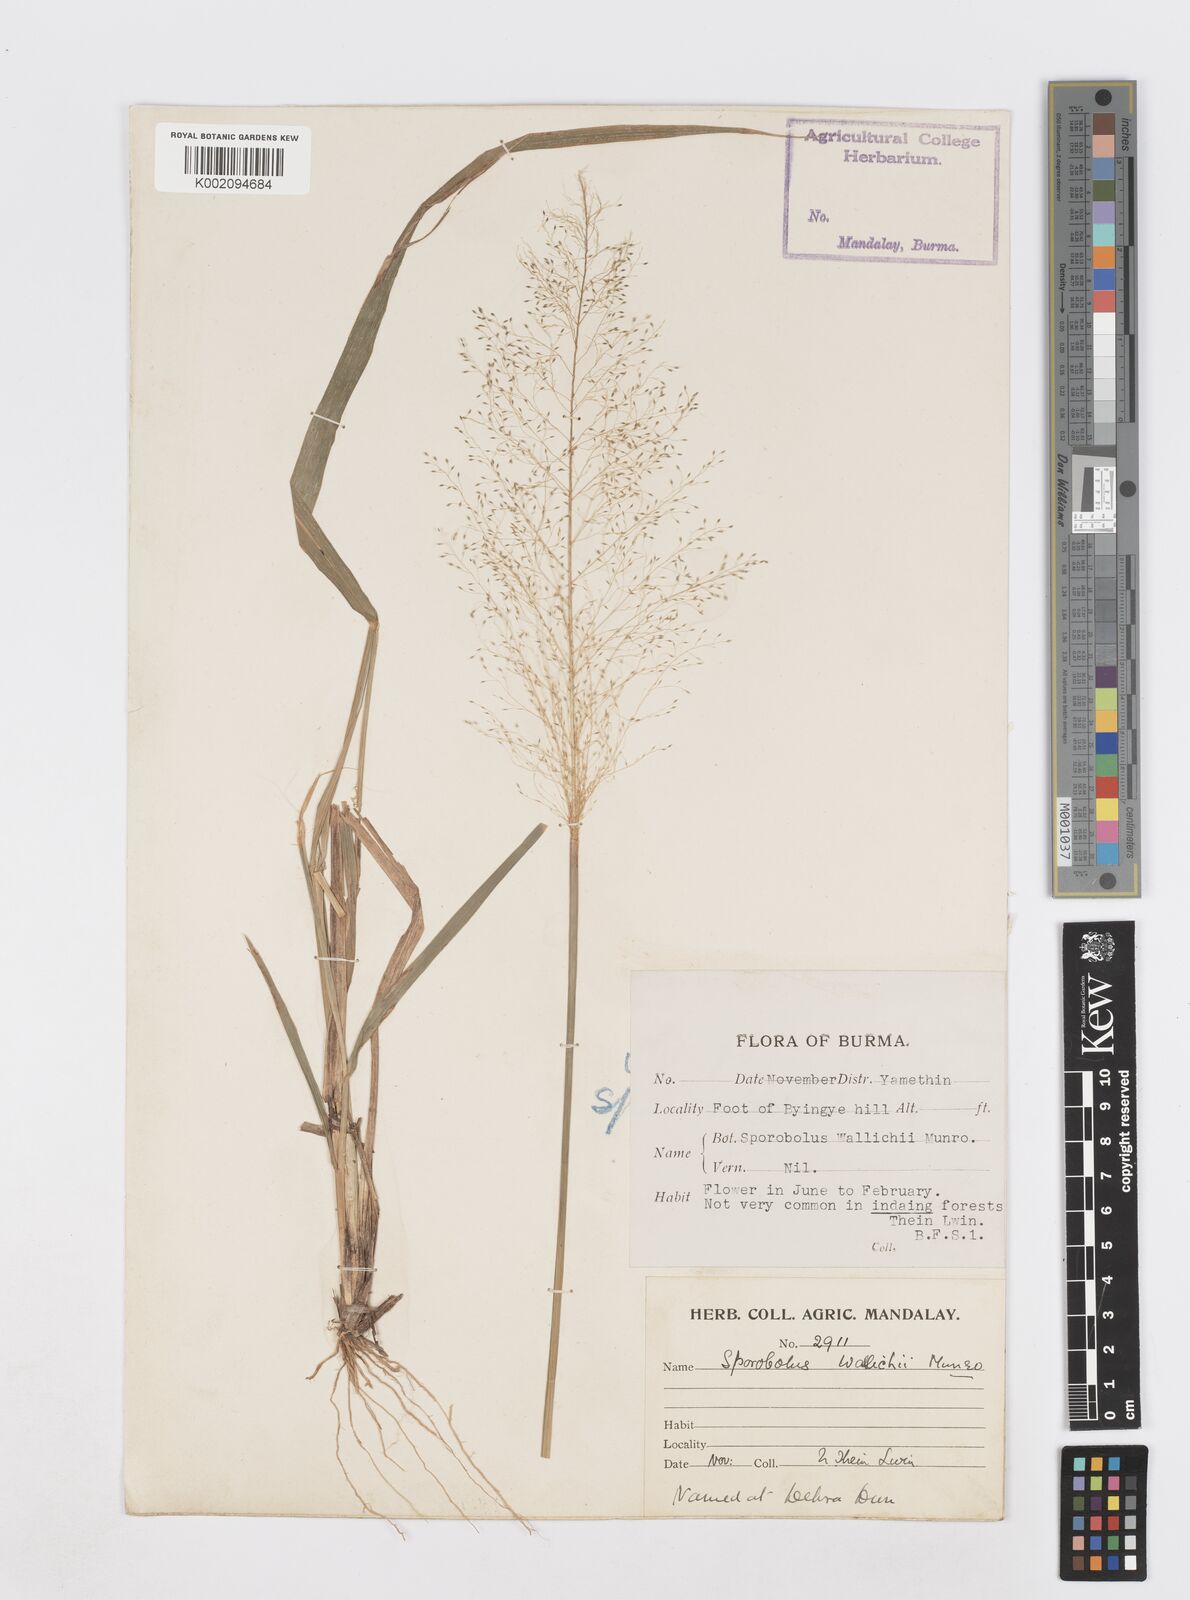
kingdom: Plantae
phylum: Tracheophyta
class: Liliopsida
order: Poales
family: Poaceae
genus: Sporobolus
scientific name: Sporobolus wallichii
